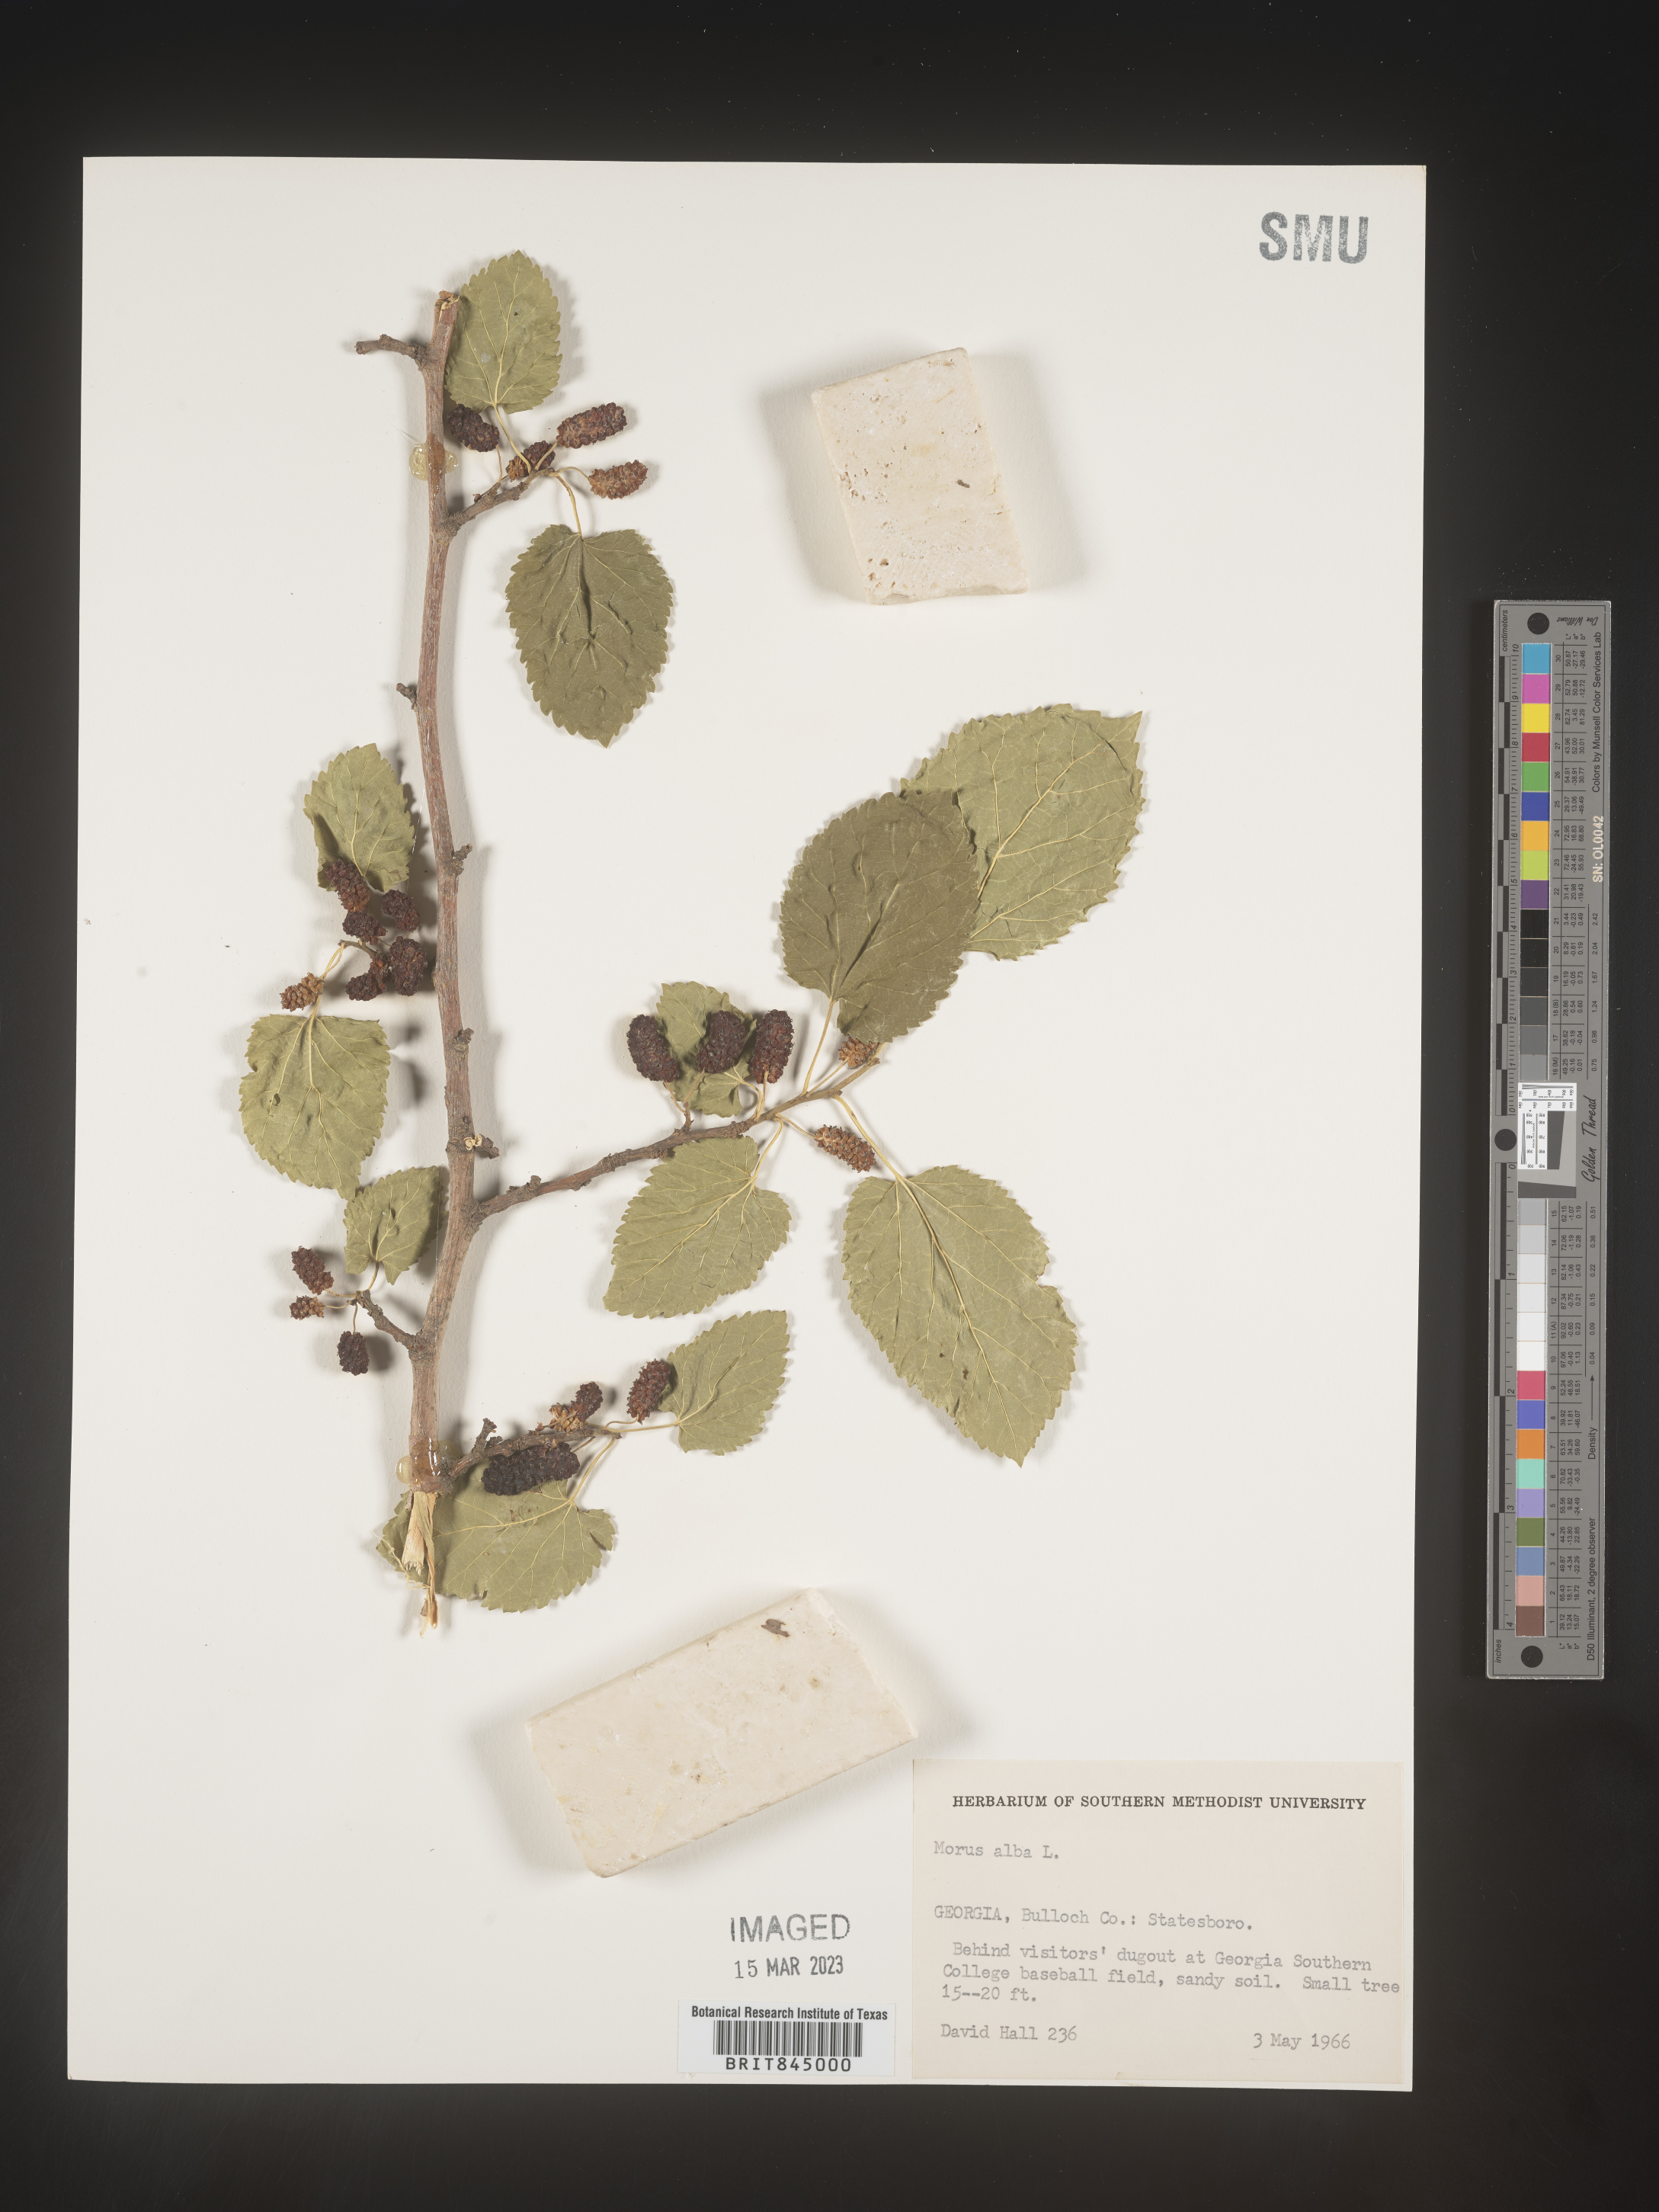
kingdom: Plantae
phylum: Tracheophyta
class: Magnoliopsida
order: Rosales
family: Moraceae
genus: Morus
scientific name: Morus alba
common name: White mulberry
